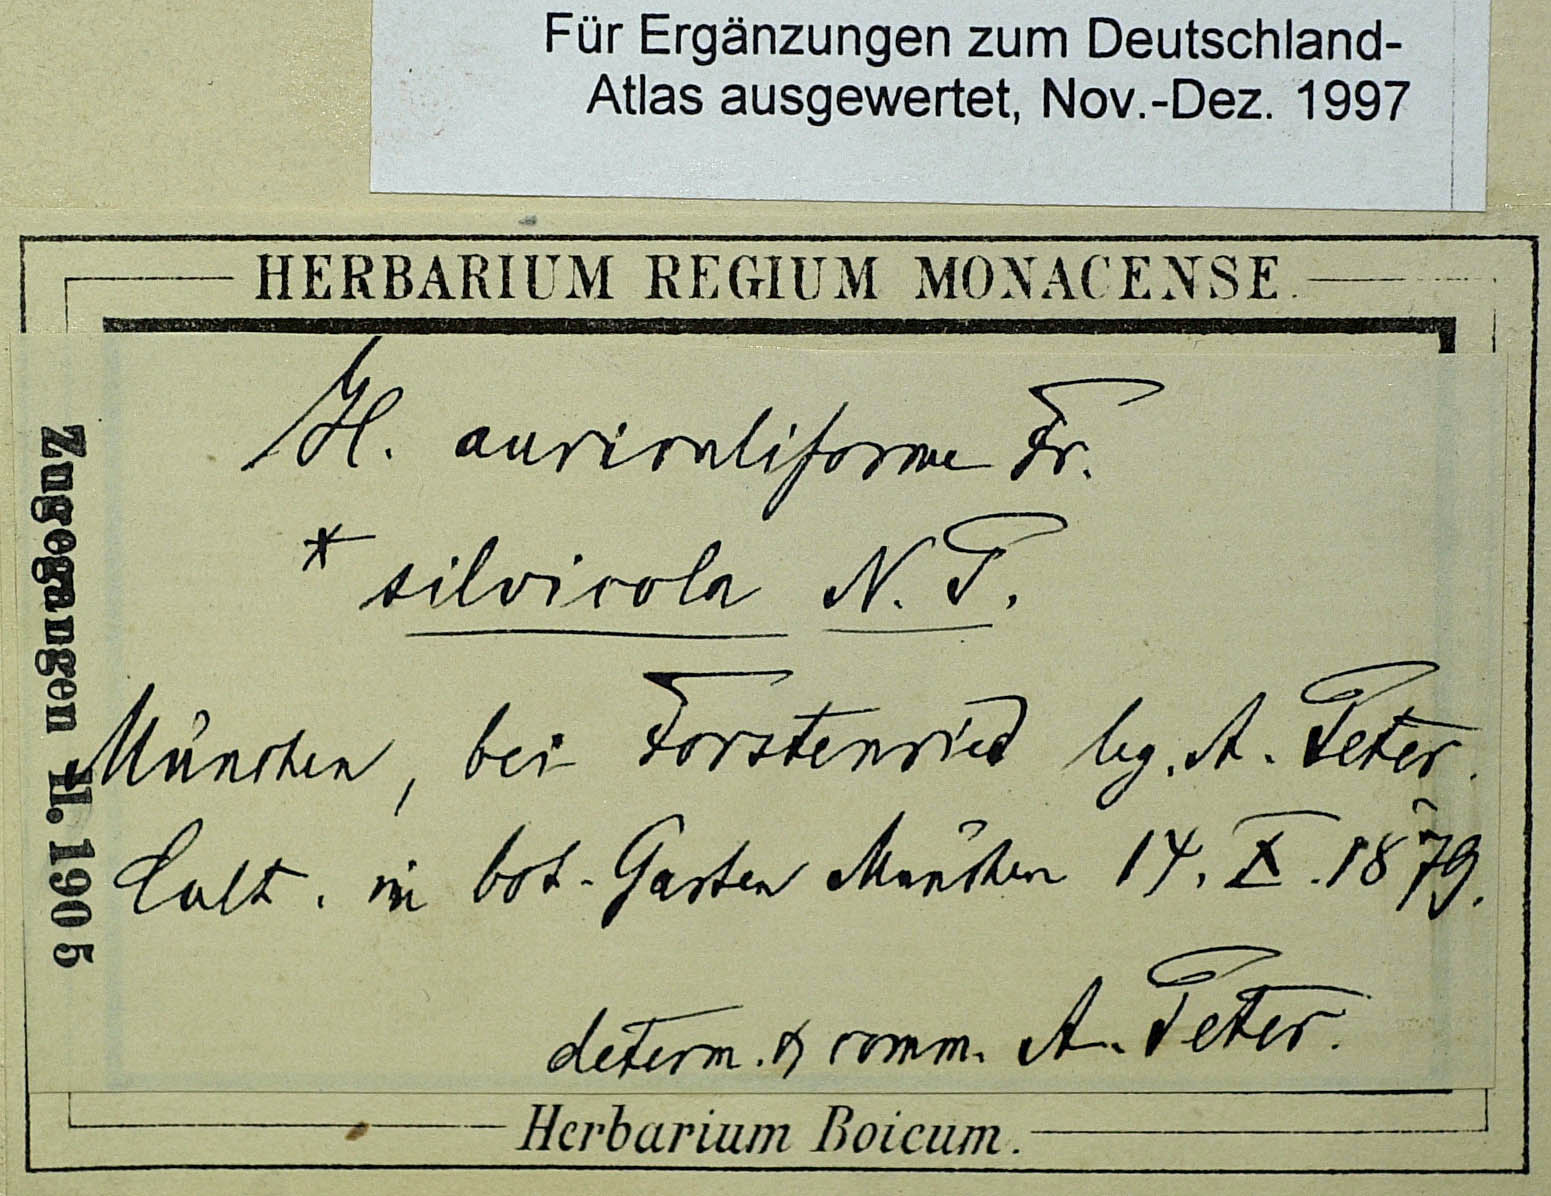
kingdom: Plantae
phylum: Tracheophyta
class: Magnoliopsida
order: Asterales
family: Asteraceae
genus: Pilosella
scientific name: Pilosella schultesii
